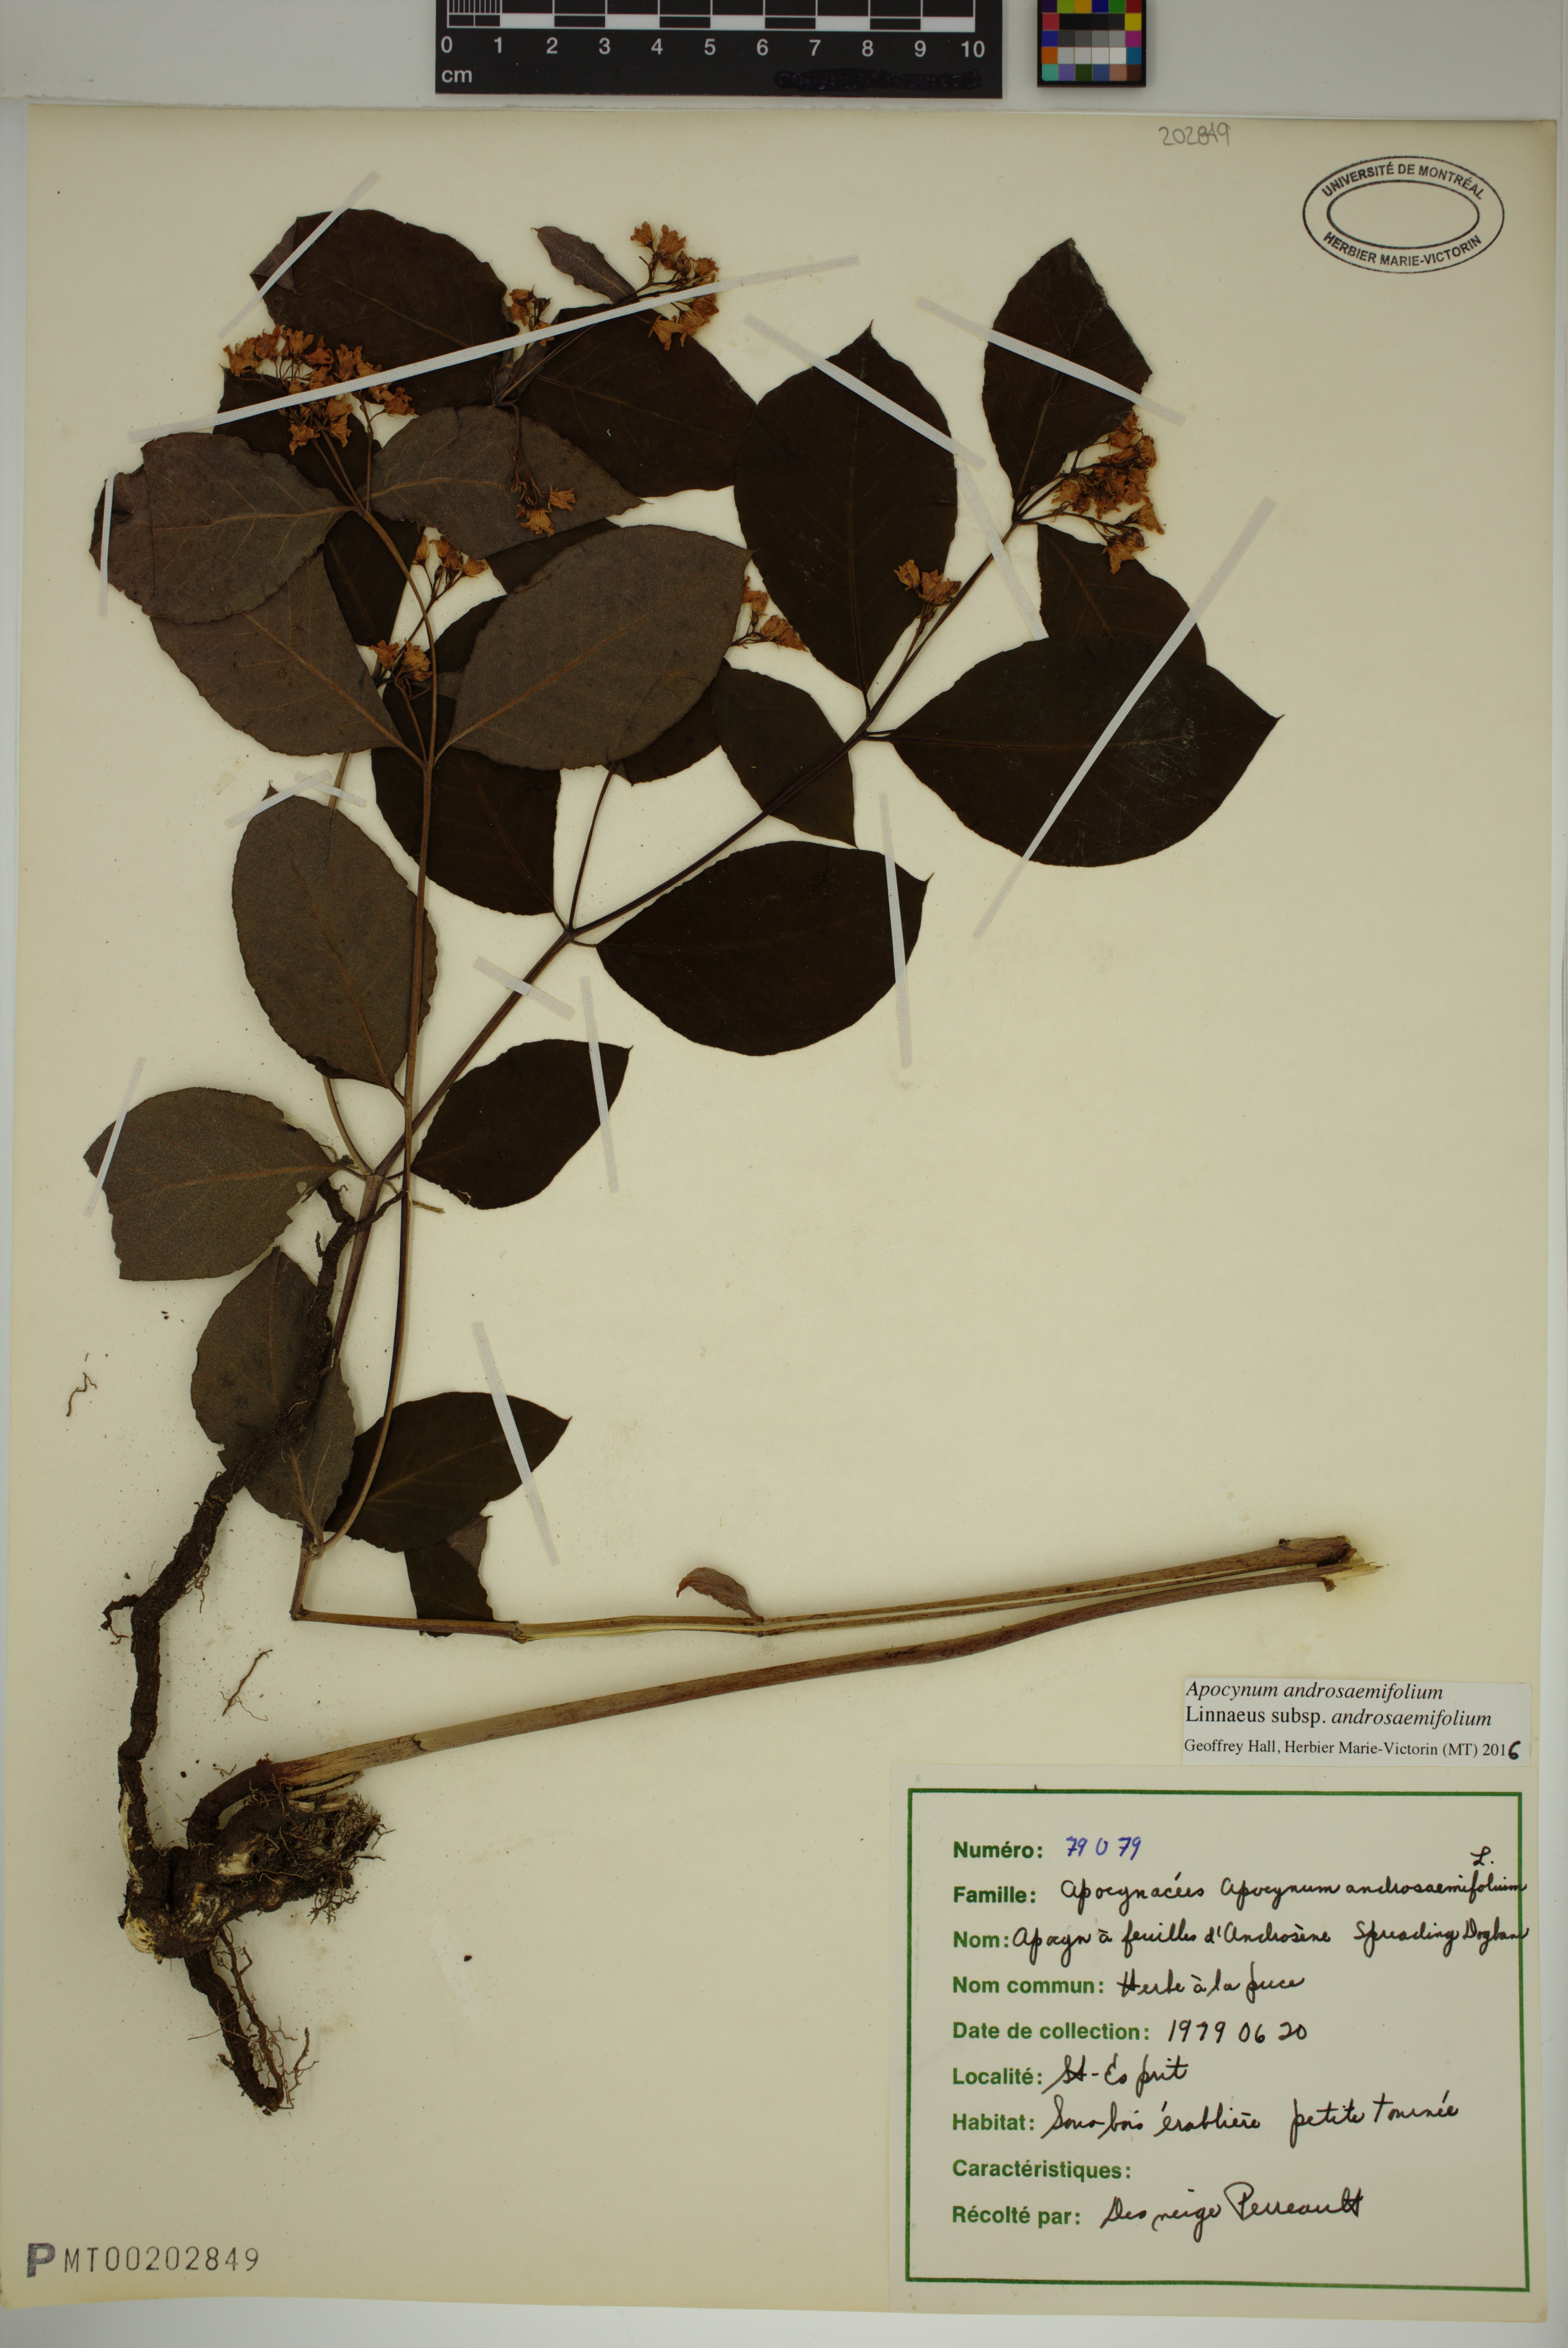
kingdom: Plantae
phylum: Tracheophyta
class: Magnoliopsida
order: Gentianales
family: Apocynaceae
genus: Apocynum
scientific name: Apocynum androsaemifolium
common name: Spreading dogbane
